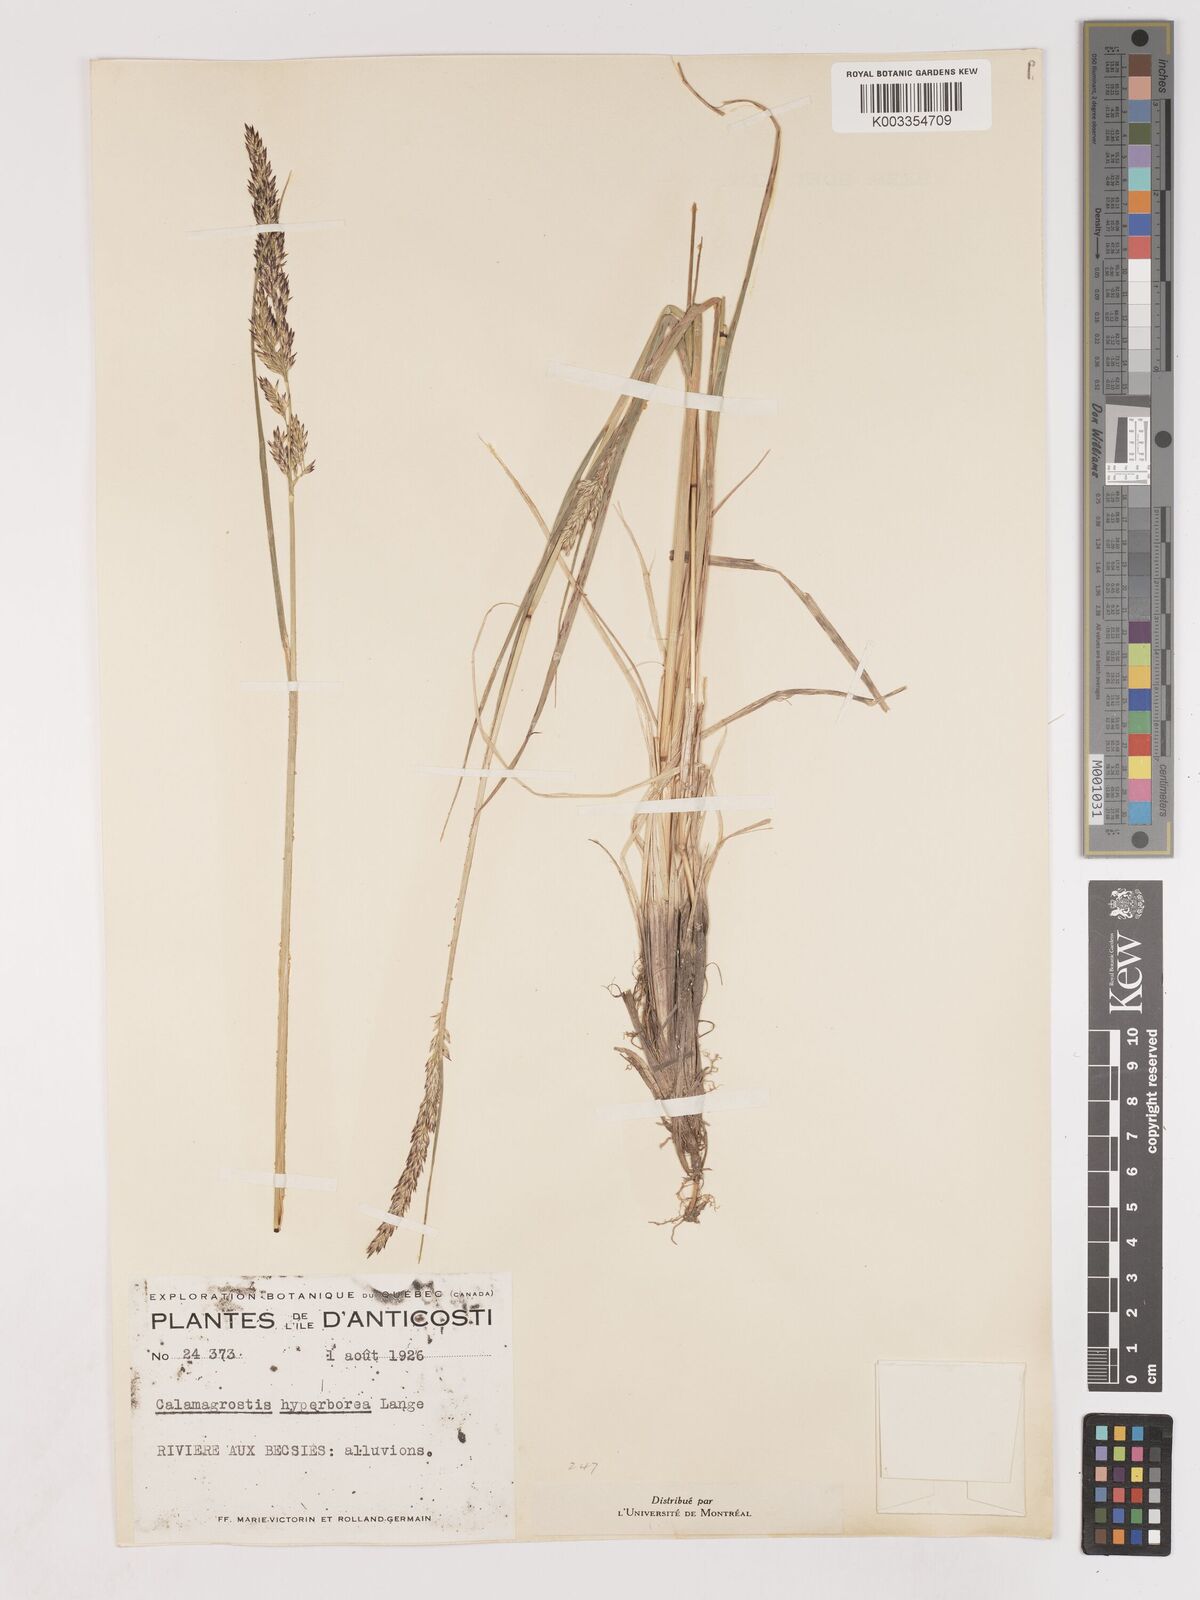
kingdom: Plantae
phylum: Tracheophyta
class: Liliopsida
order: Poales
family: Poaceae
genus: Cinnagrostis
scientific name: Cinnagrostis recta
